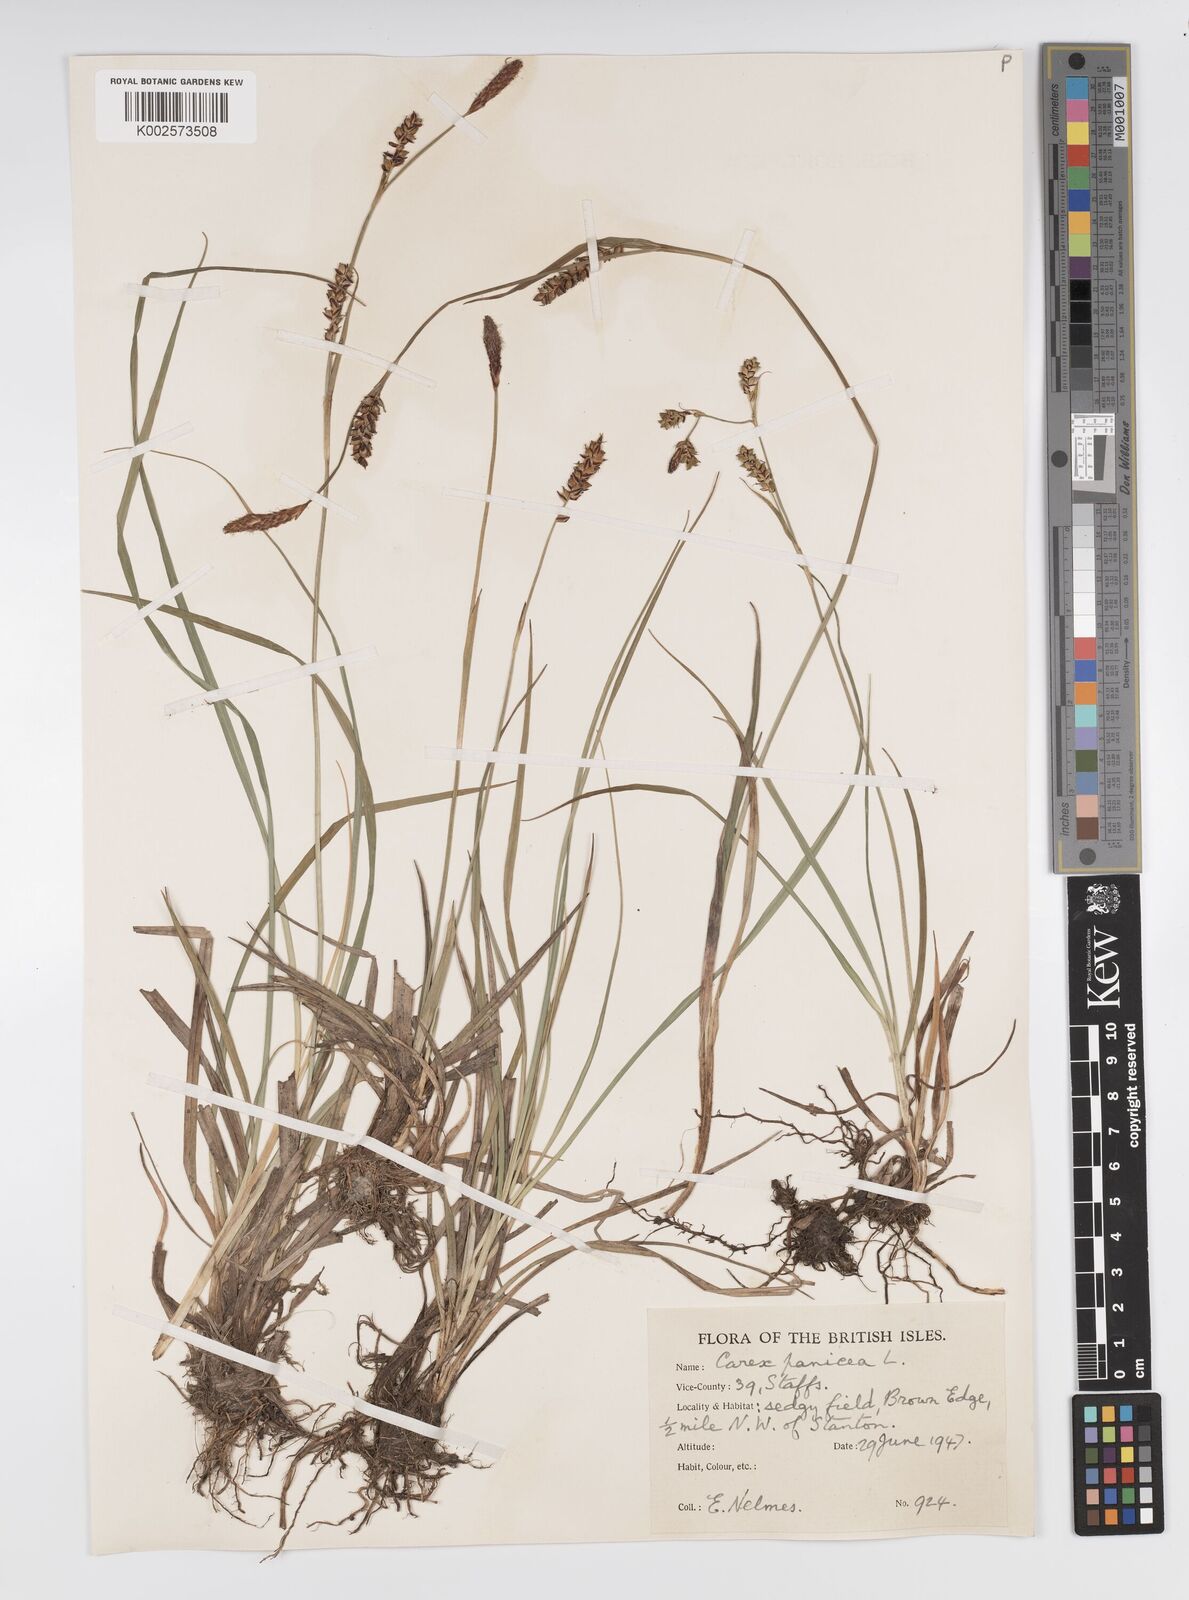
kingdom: Plantae
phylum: Tracheophyta
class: Liliopsida
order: Poales
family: Cyperaceae
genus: Carex
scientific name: Carex panicea
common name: Carnation sedge
